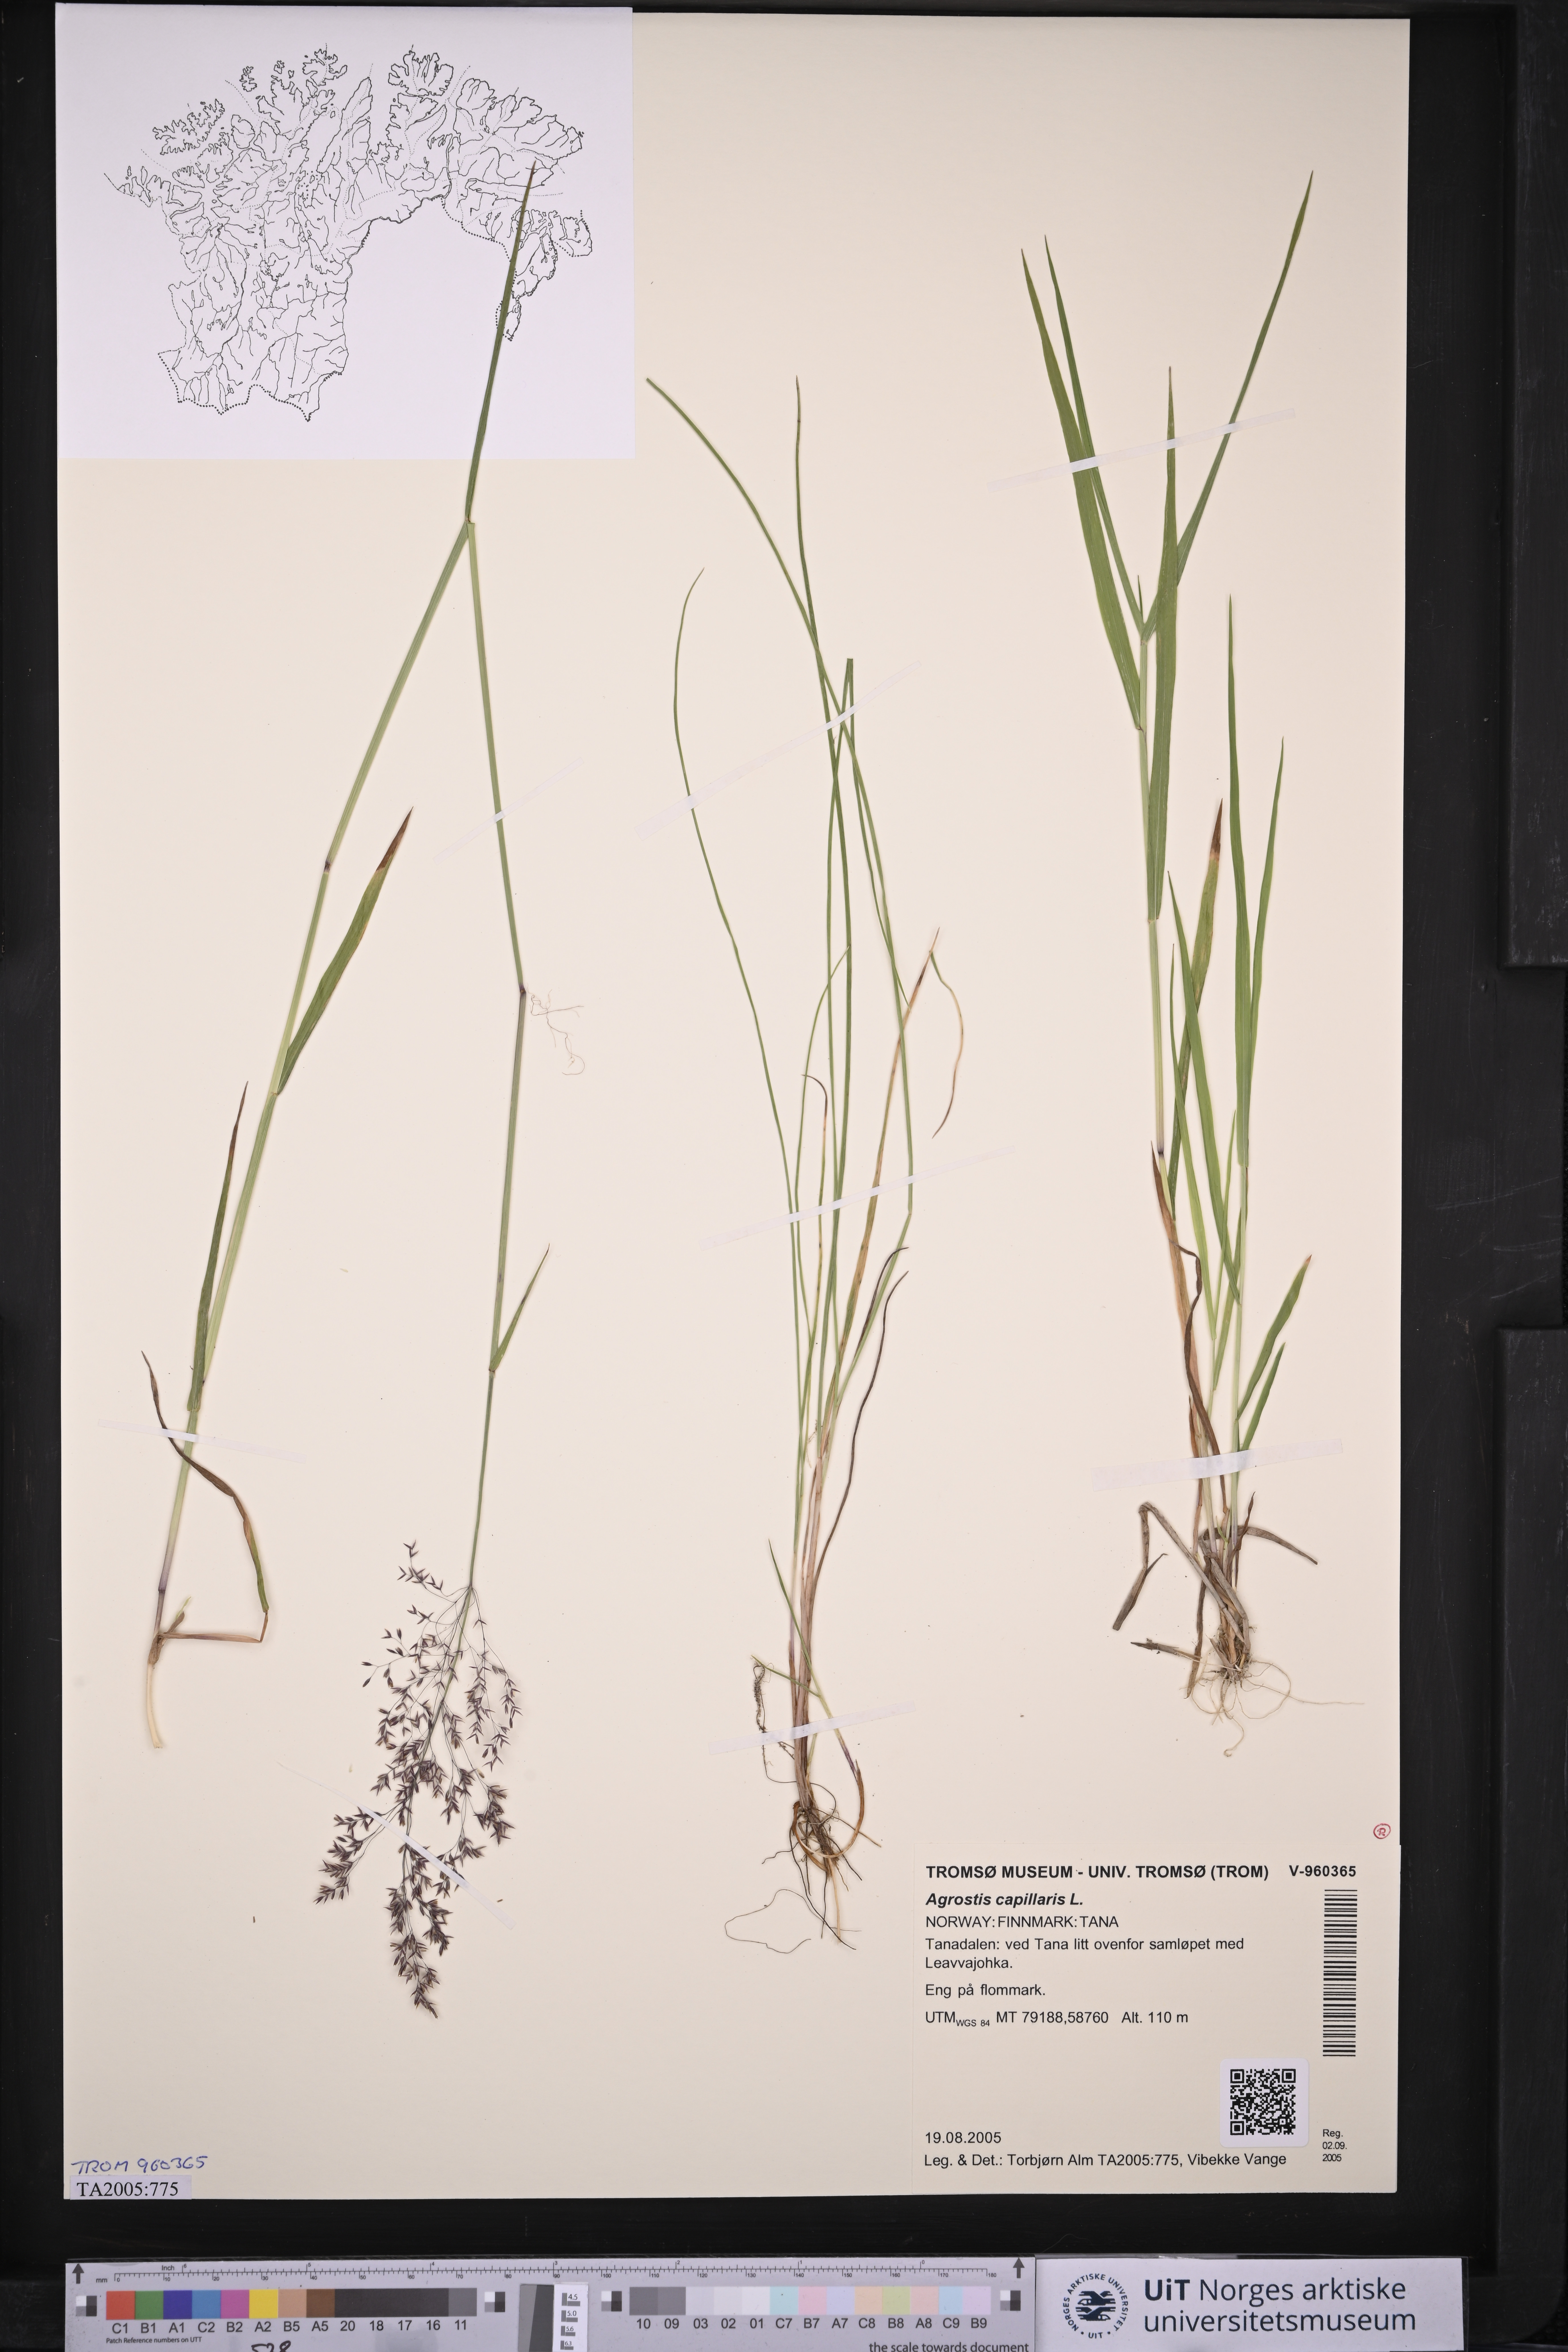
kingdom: Plantae
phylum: Tracheophyta
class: Liliopsida
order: Poales
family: Poaceae
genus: Agrostis
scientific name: Agrostis capillaris
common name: Colonial bentgrass
